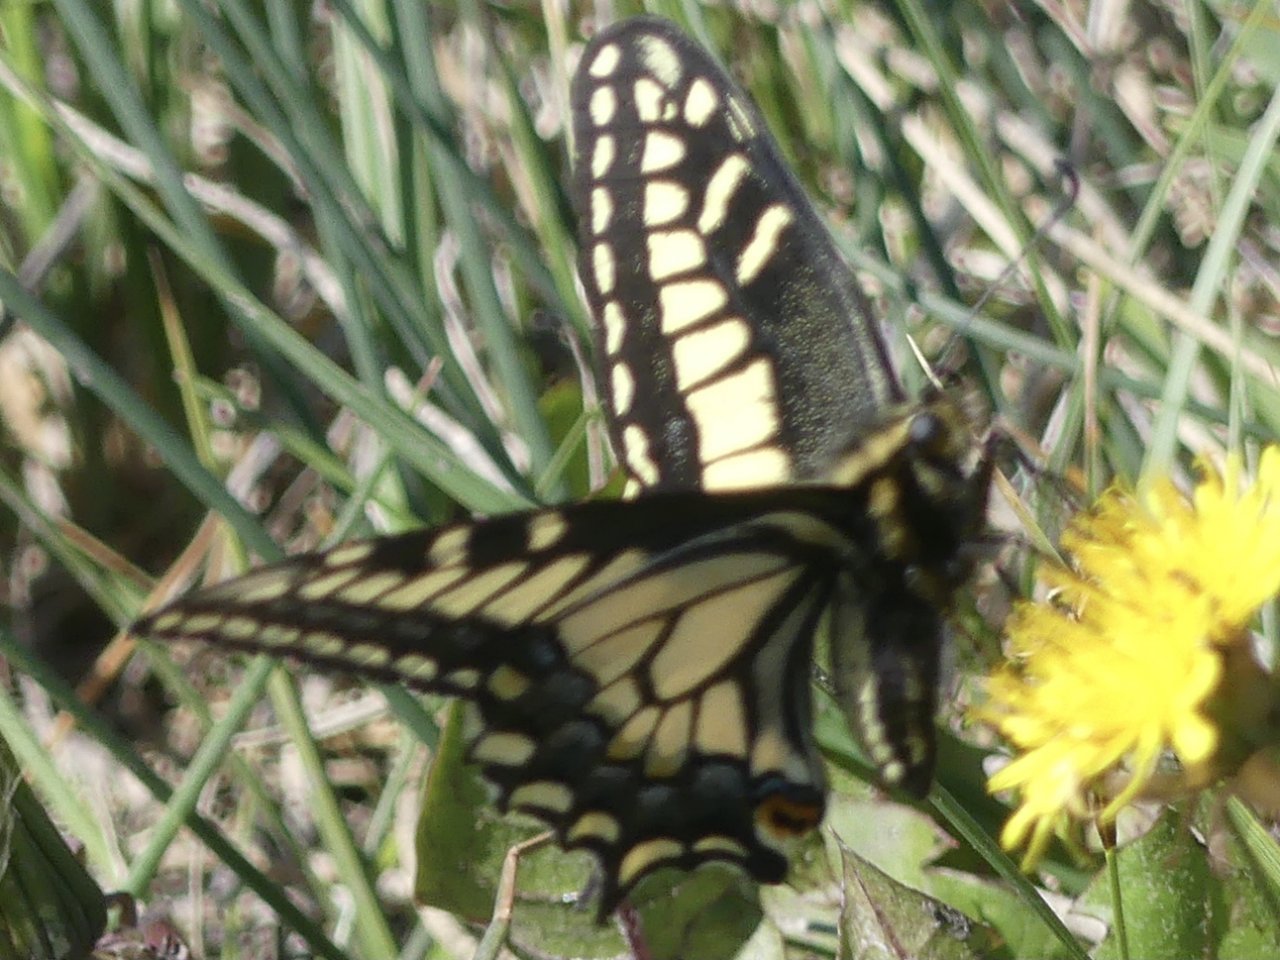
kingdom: Animalia
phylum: Arthropoda
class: Insecta
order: Lepidoptera
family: Papilionidae
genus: Papilio
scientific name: Papilio machaon
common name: Old World Swallowtail
